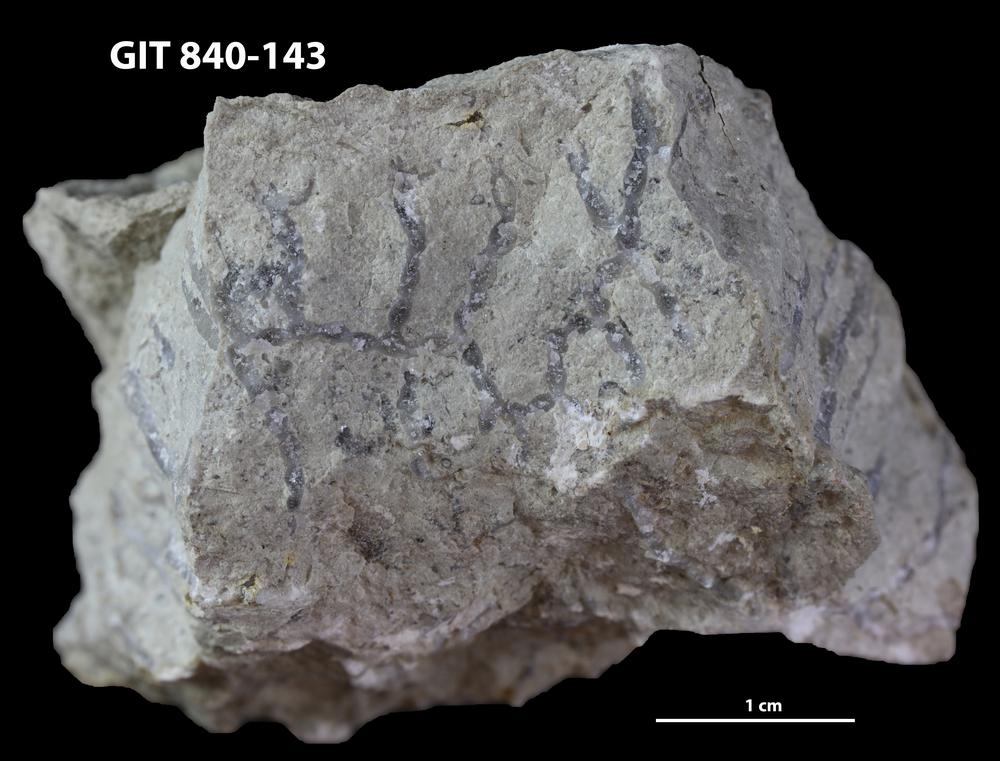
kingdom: Animalia
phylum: Cnidaria
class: Anthozoa
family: Cateniporidae
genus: Catenipora
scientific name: Catenipora
